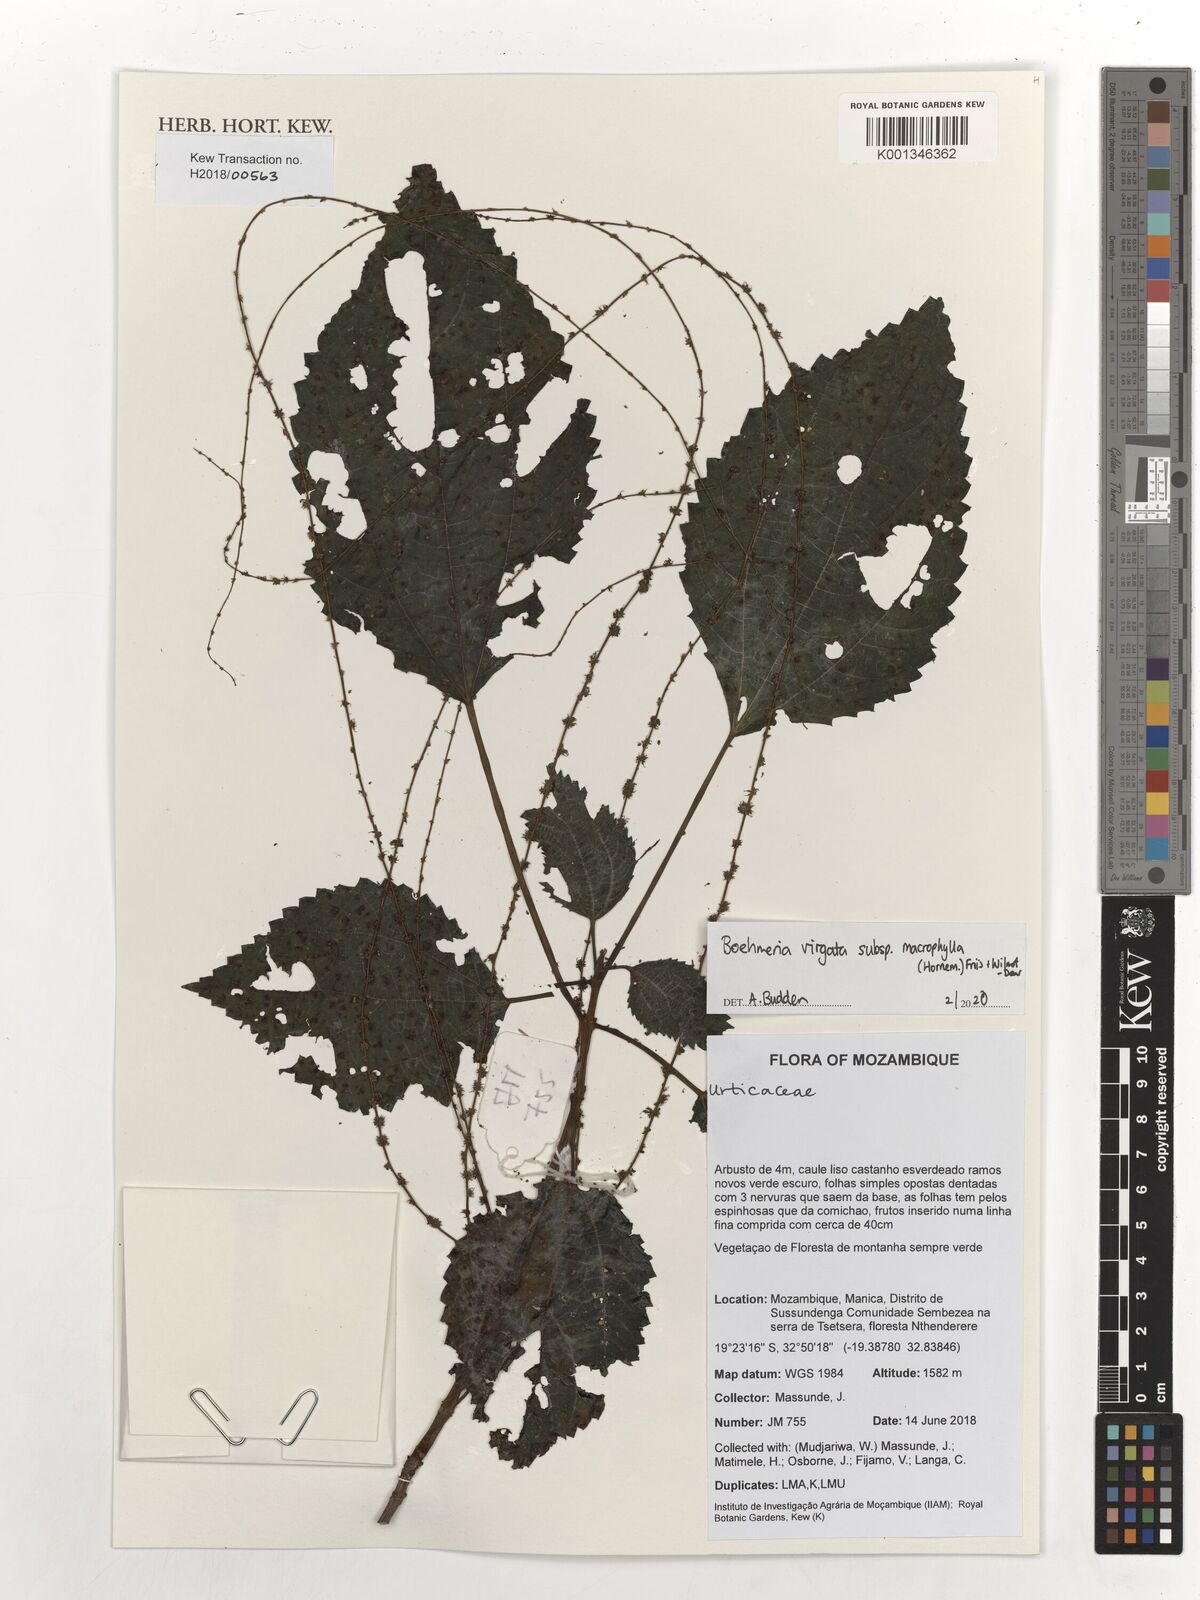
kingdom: Plantae
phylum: Tracheophyta
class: Magnoliopsida
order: Rosales
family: Urticaceae
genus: Boehmeria
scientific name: Boehmeria virgata
